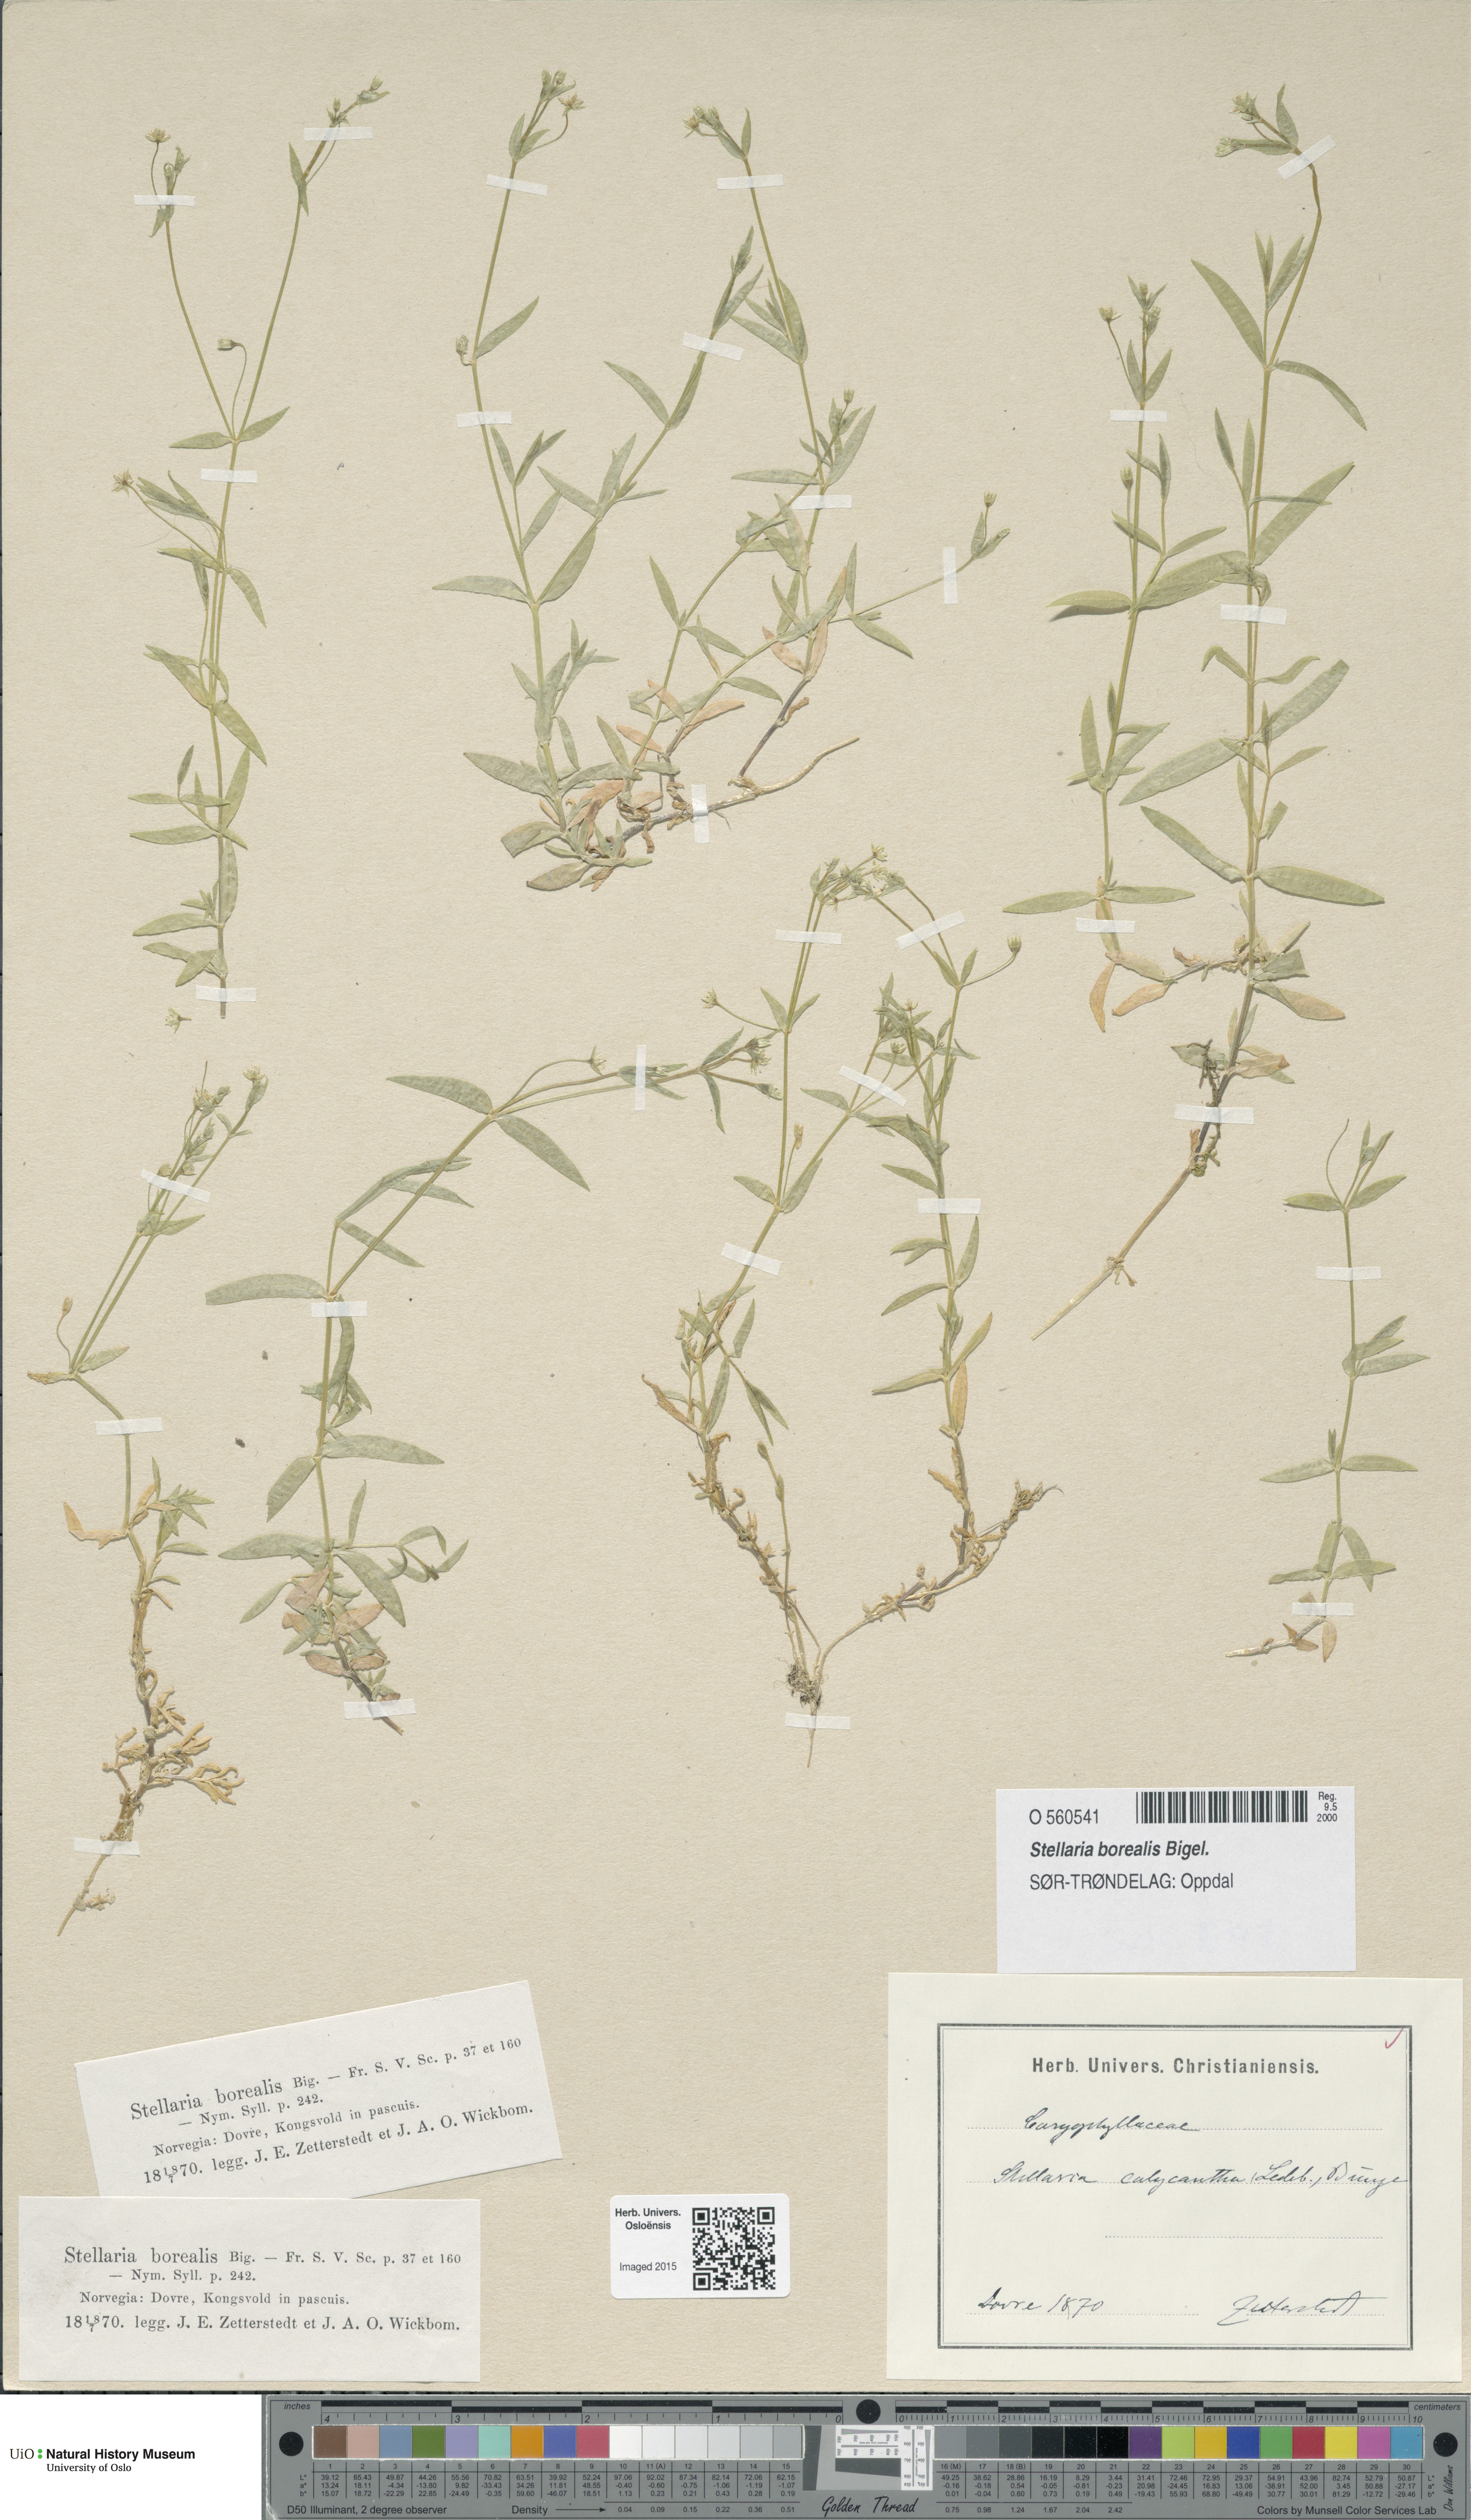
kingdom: Plantae
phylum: Tracheophyta
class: Magnoliopsida
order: Caryophyllales
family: Caryophyllaceae
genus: Stellaria
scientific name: Stellaria borealis
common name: Boreal starwort
